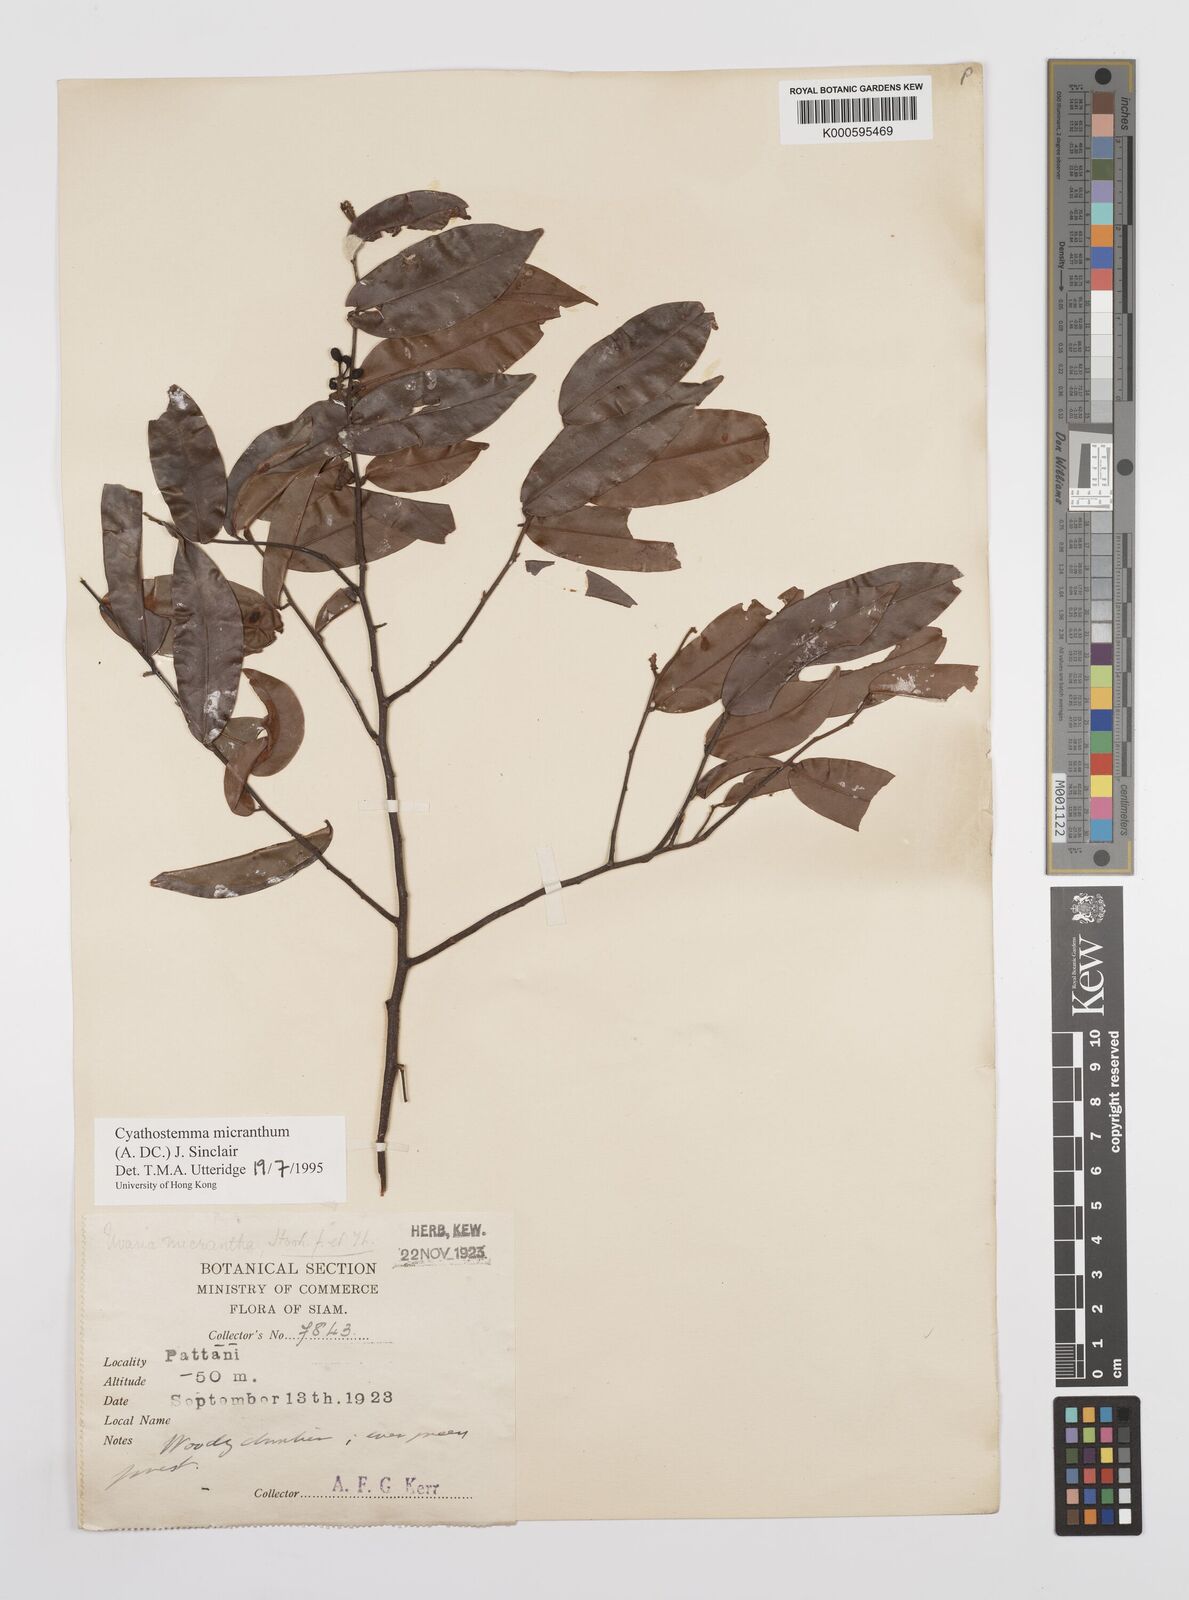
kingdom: Plantae
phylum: Tracheophyta
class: Magnoliopsida
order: Magnoliales
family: Annonaceae
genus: Uvaria
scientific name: Uvaria micrantha
